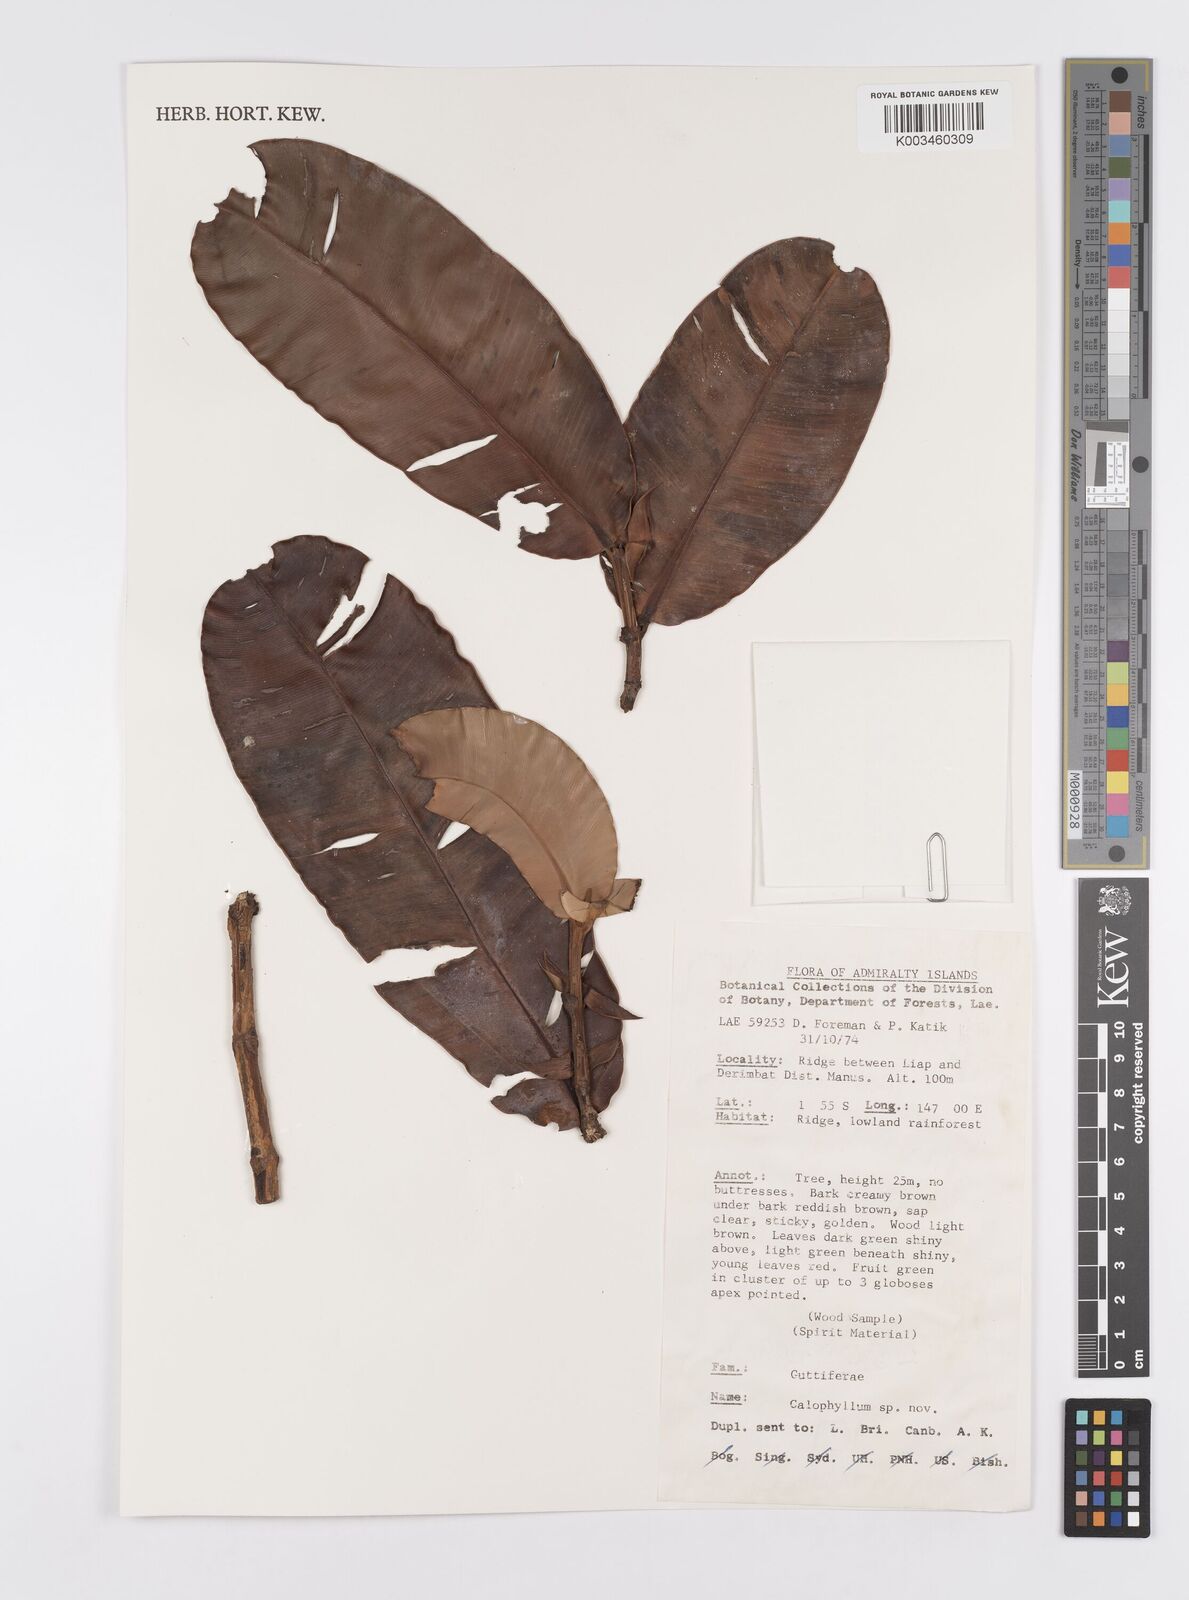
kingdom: Plantae
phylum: Tracheophyta
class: Magnoliopsida
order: Malpighiales
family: Calophyllaceae
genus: Calophyllum
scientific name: Calophyllum
